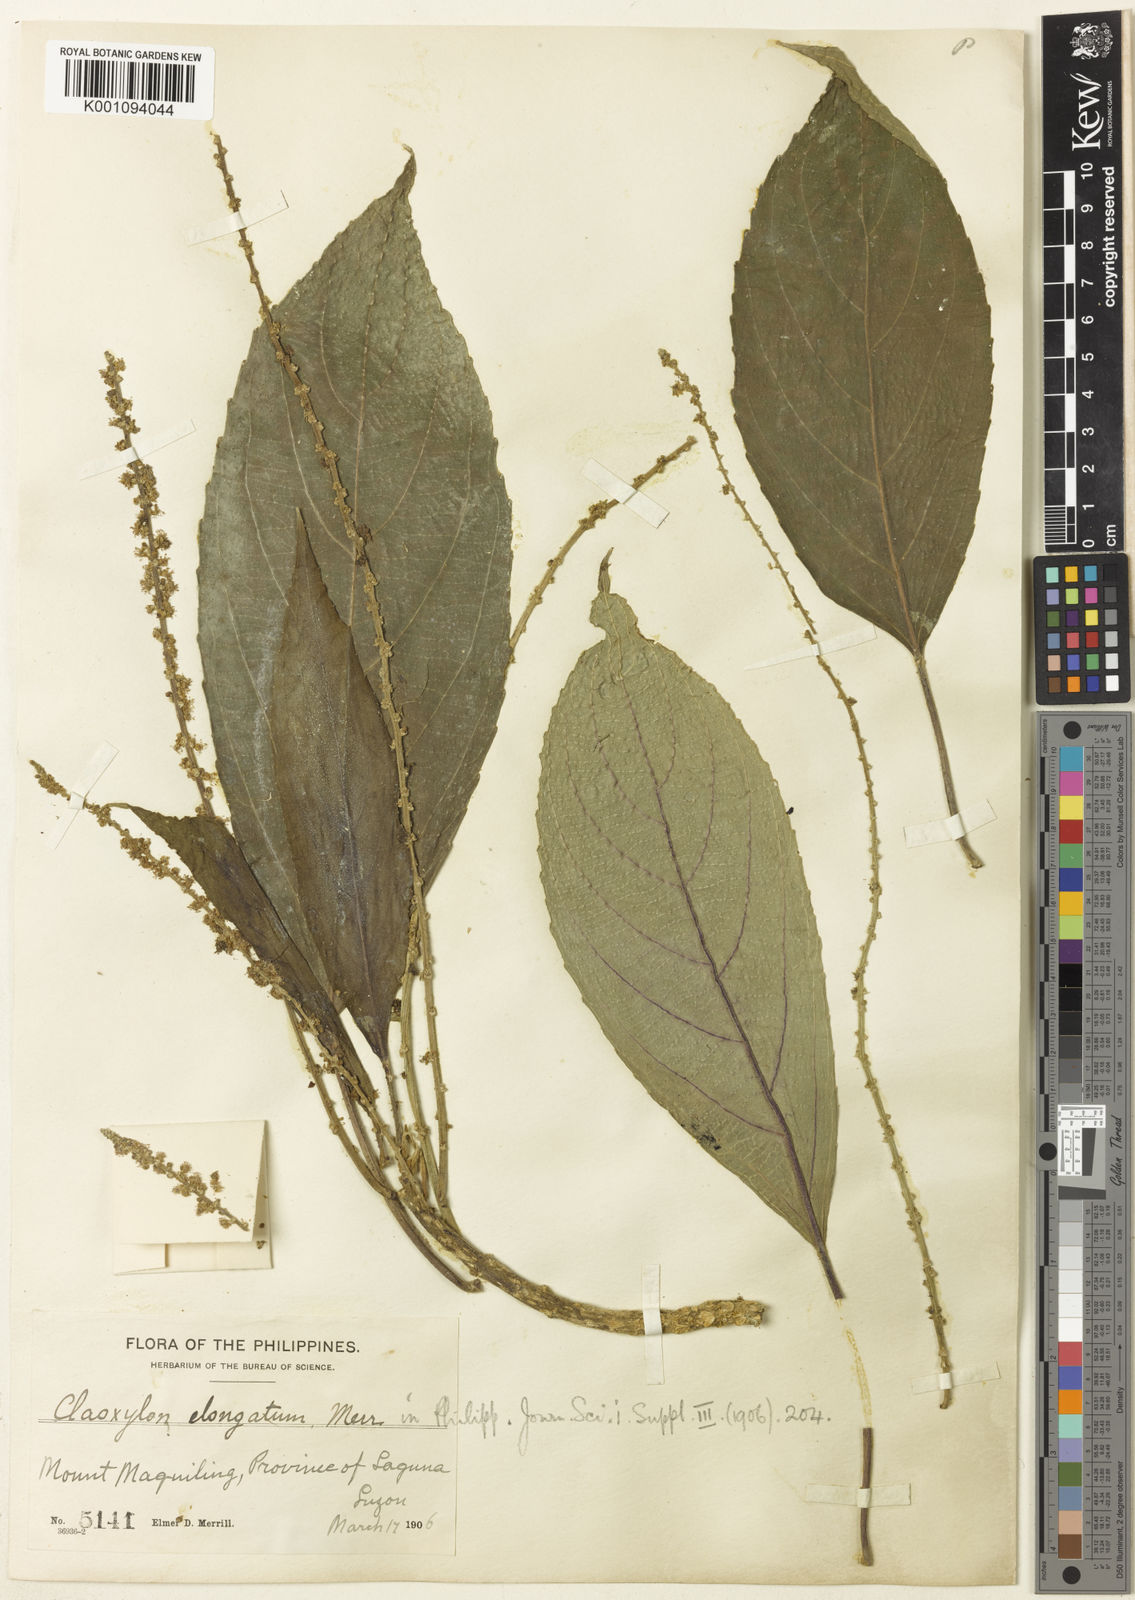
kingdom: Plantae
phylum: Tracheophyta
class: Magnoliopsida
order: Malpighiales
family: Euphorbiaceae
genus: Claoxylon
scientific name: Claoxylon albicans
